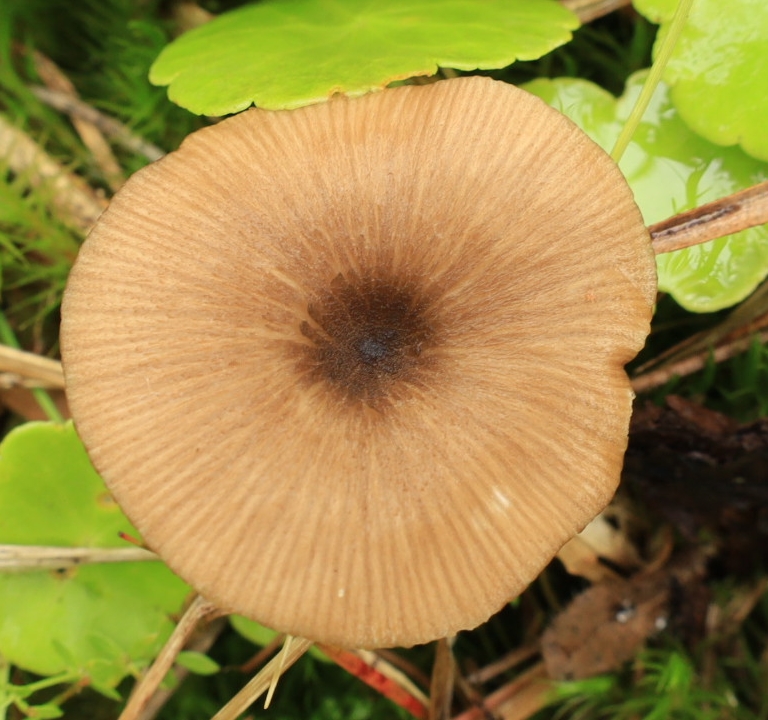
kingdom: Fungi
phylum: Basidiomycota
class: Agaricomycetes
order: Agaricales
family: Entolomataceae
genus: Entoloma
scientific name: Entoloma
